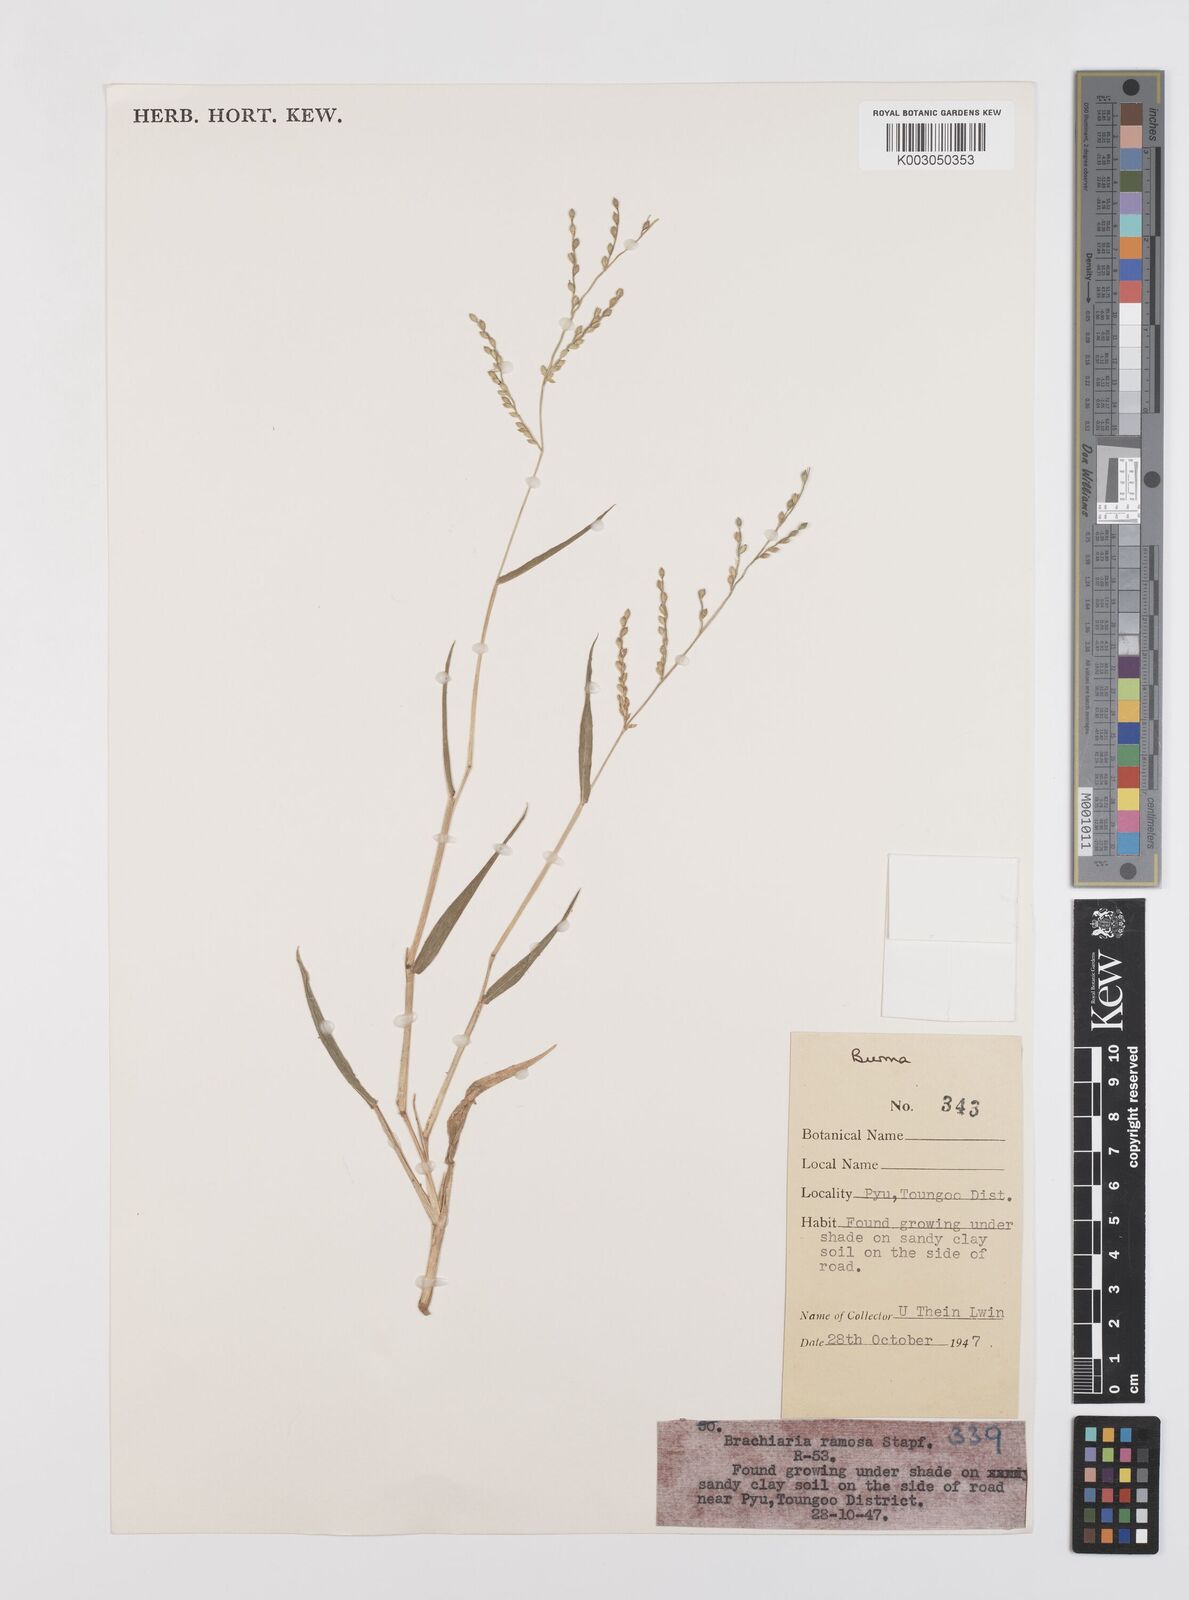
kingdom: Plantae
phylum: Tracheophyta
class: Liliopsida
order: Poales
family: Poaceae
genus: Urochloa
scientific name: Urochloa ramosa
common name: Browntop millet
